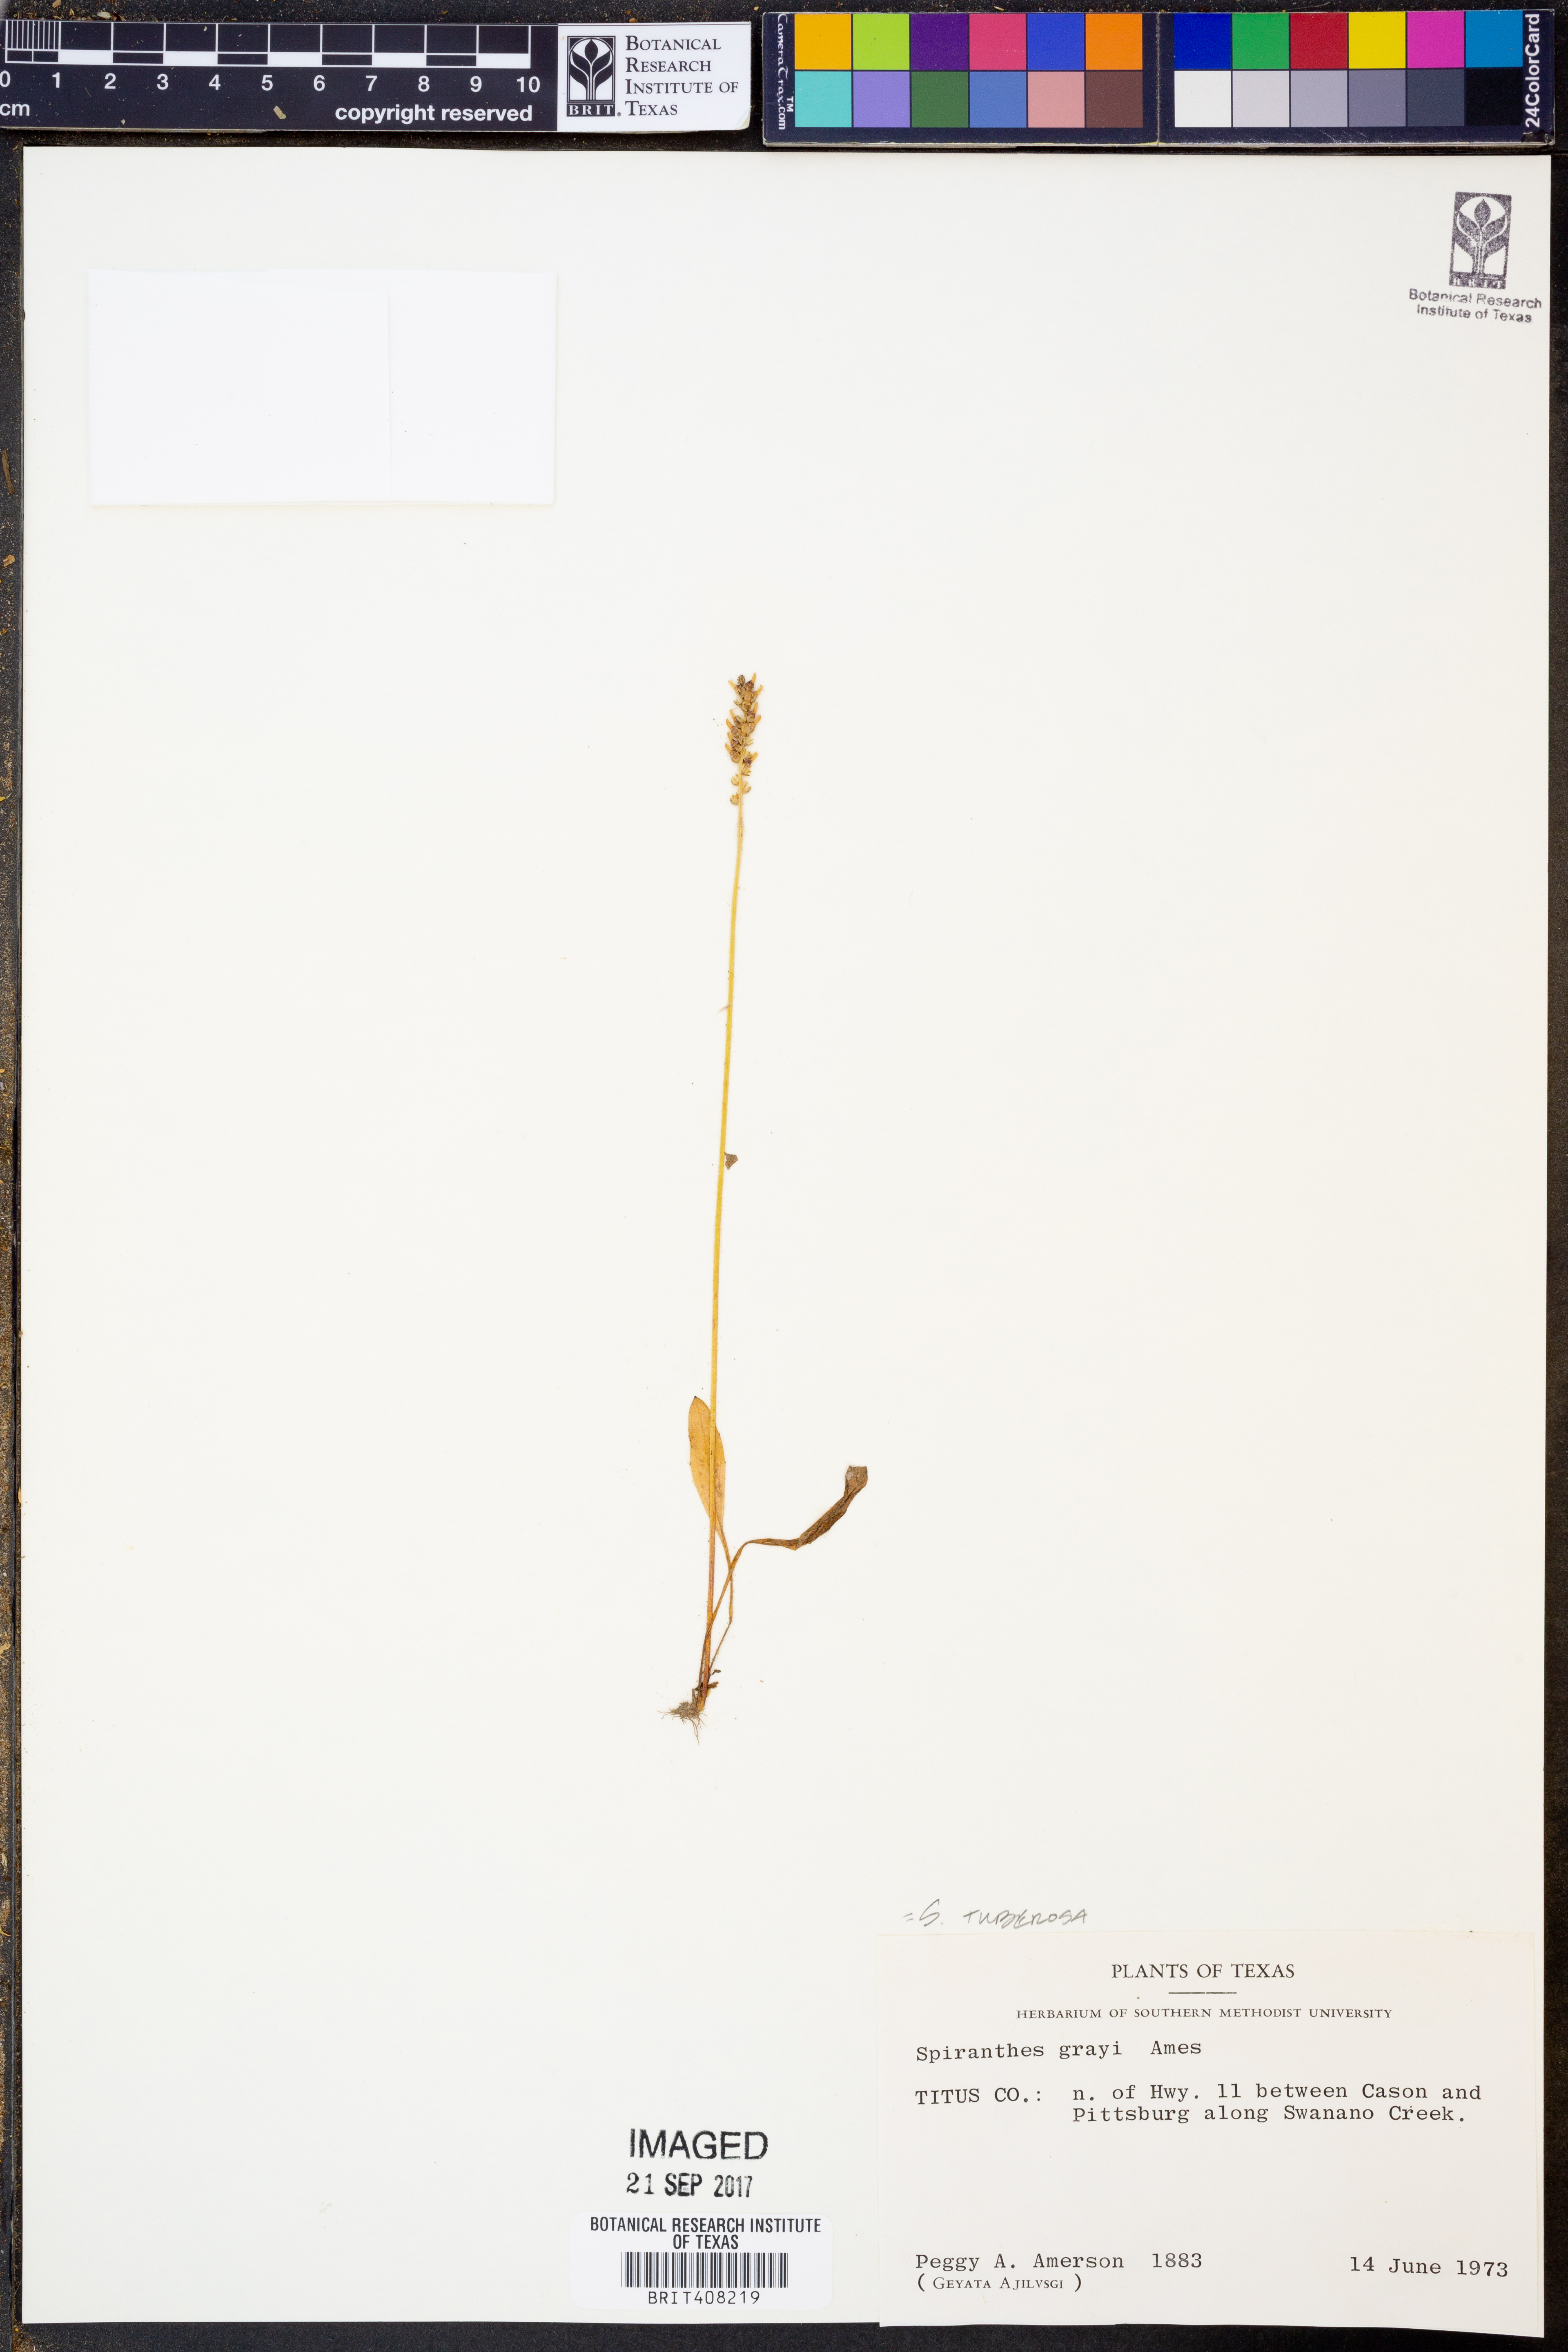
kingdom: Plantae
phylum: Tracheophyta
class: Liliopsida
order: Asparagales
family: Orchidaceae
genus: Spiranthes
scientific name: Spiranthes tuberosa
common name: Little ladies'-tresses
